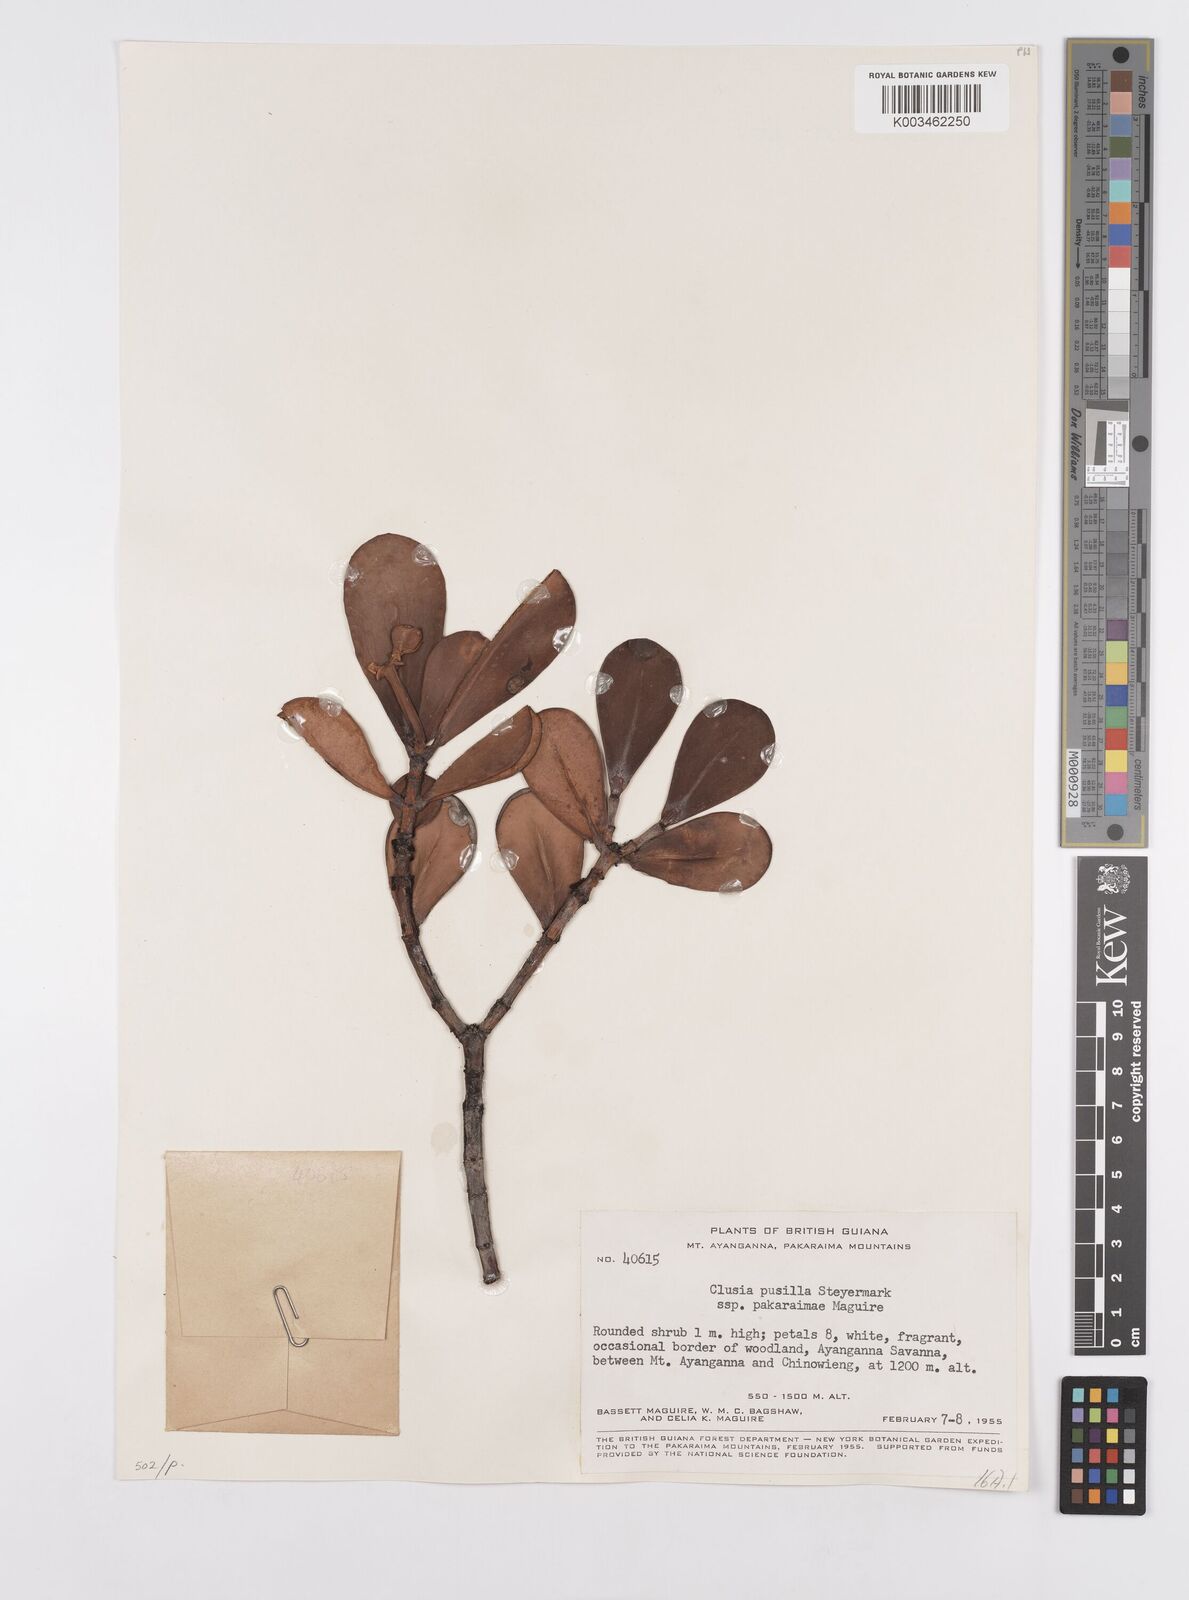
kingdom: Plantae
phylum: Tracheophyta
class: Magnoliopsida
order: Malpighiales
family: Clusiaceae
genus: Clusia
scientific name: Clusia pusilla
